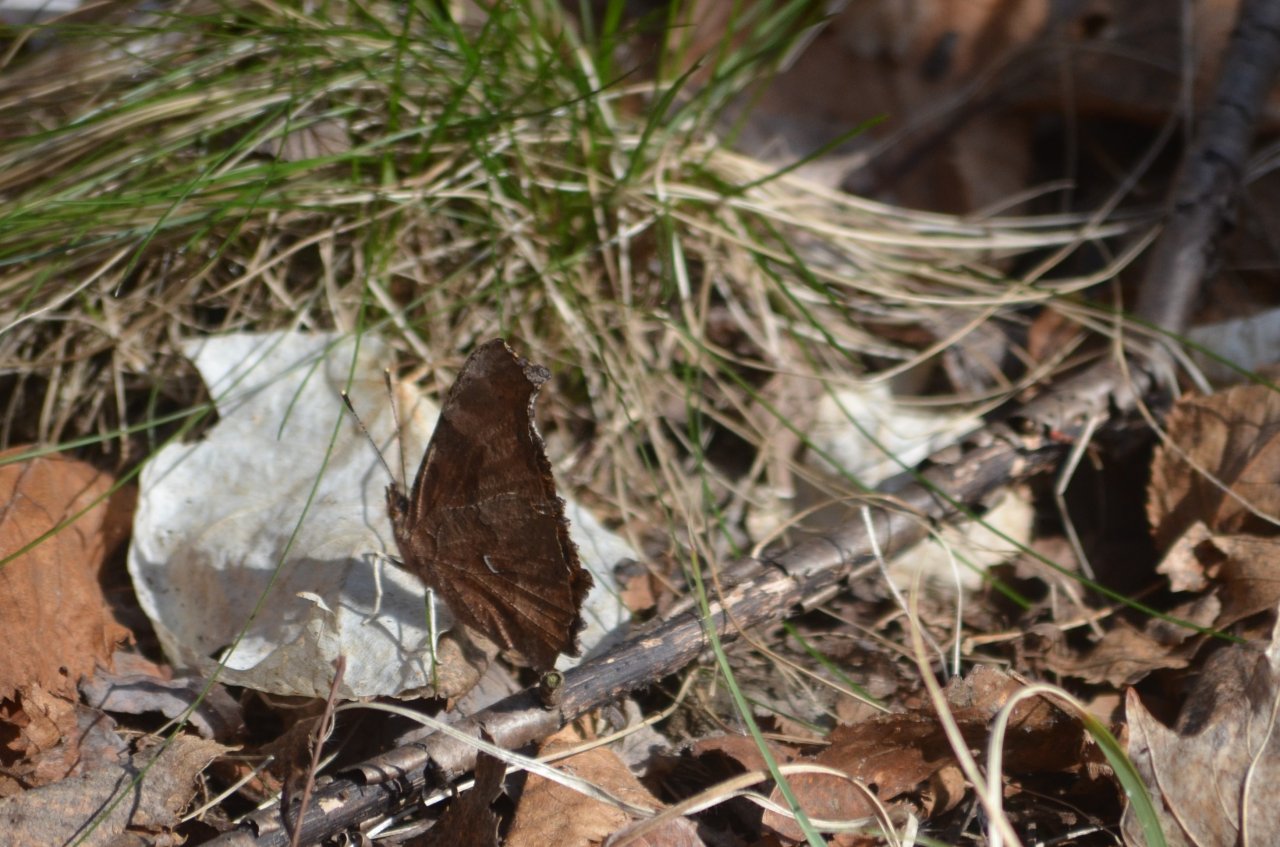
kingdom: Animalia
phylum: Arthropoda
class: Insecta
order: Lepidoptera
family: Nymphalidae
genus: Polygonia
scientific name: Polygonia comma
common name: Eastern Comma
